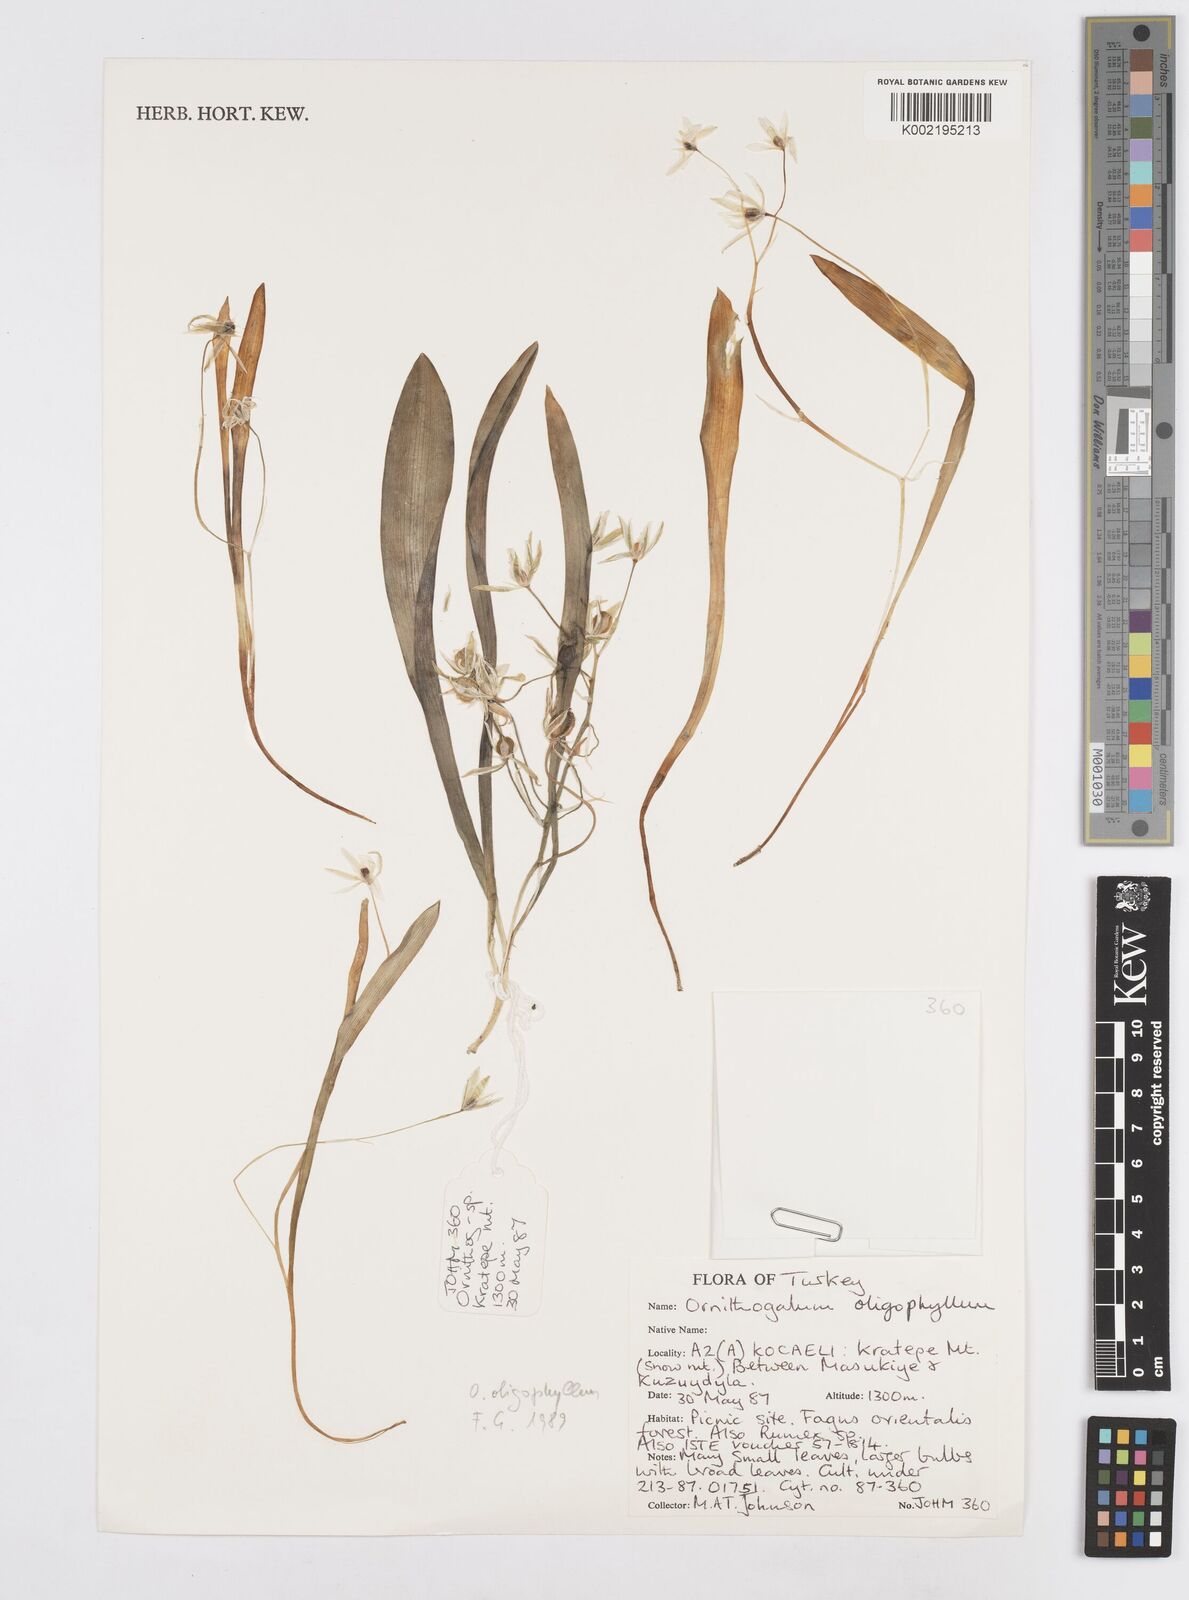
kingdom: Plantae
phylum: Tracheophyta
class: Liliopsida
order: Asparagales
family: Asparagaceae
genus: Ornithogalum
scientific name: Ornithogalum oligophyllum
